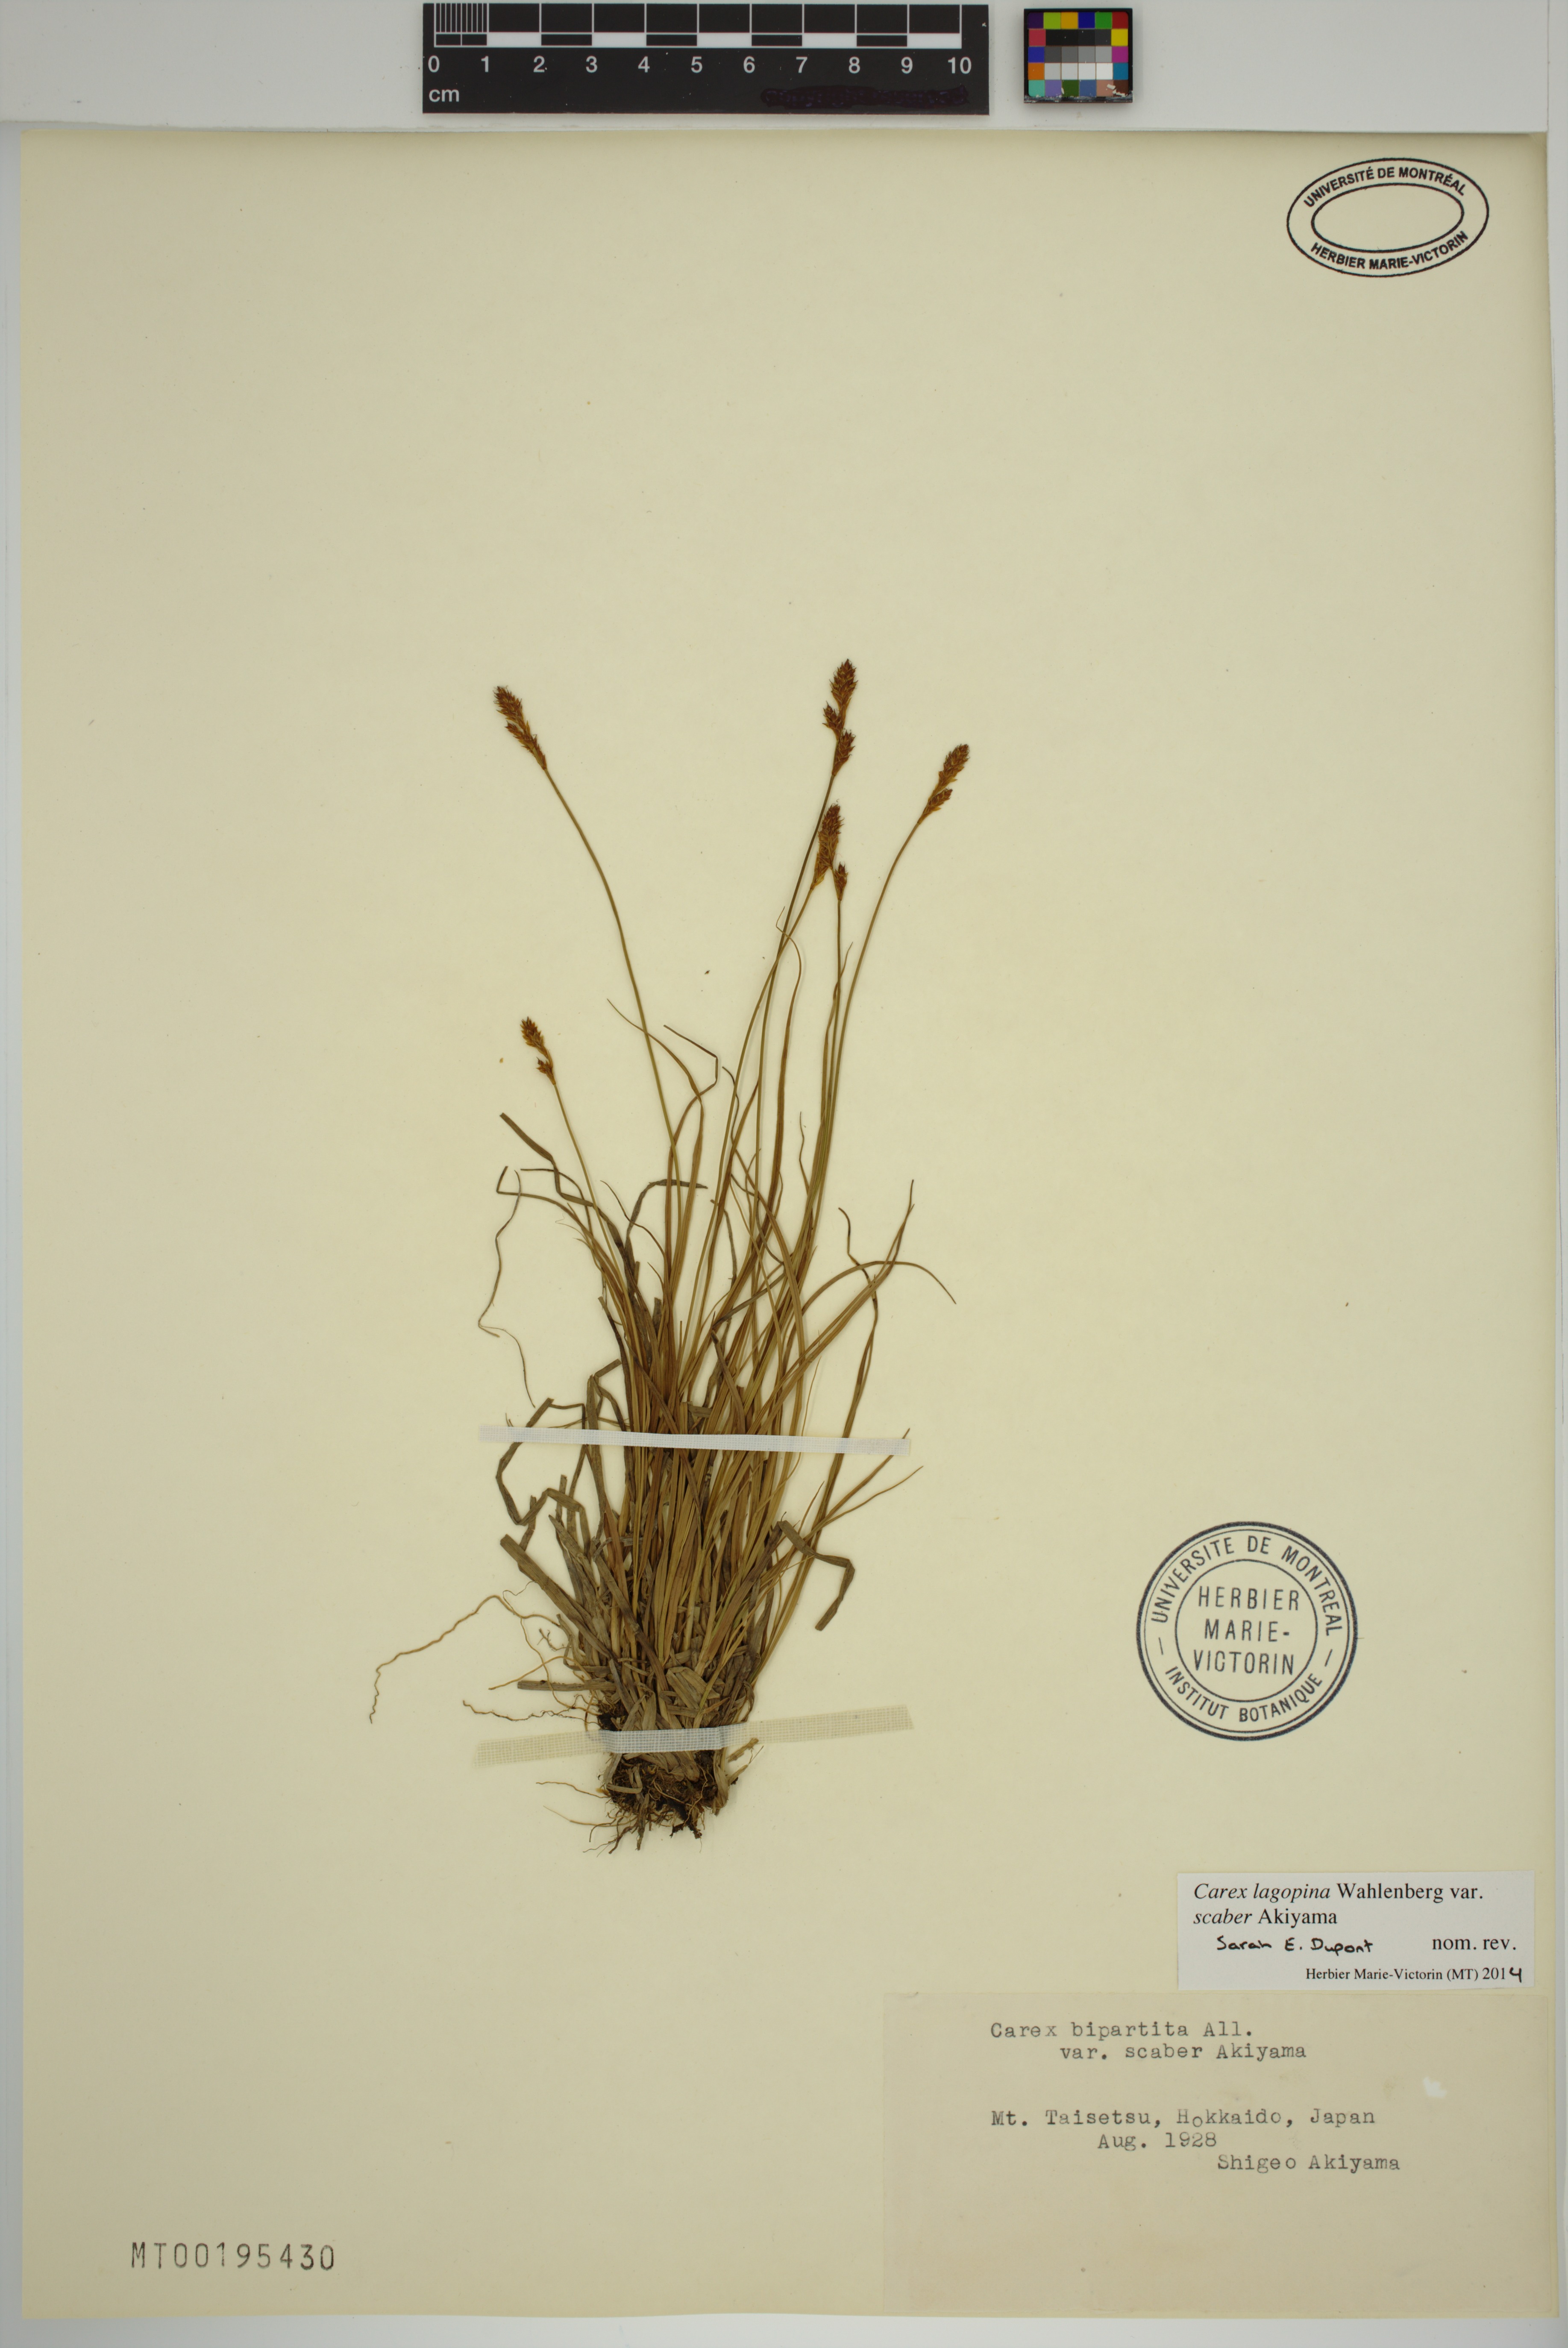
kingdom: Plantae
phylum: Tracheophyta
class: Liliopsida
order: Poales
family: Cyperaceae
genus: Carex
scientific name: Carex
